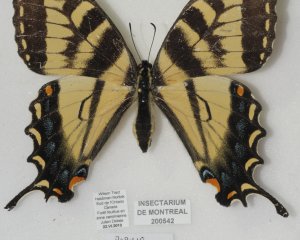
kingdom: Animalia
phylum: Arthropoda
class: Insecta
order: Lepidoptera
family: Papilionidae
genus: Pterourus
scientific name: Pterourus glaucus
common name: Eastern Tiger Swallowtail
